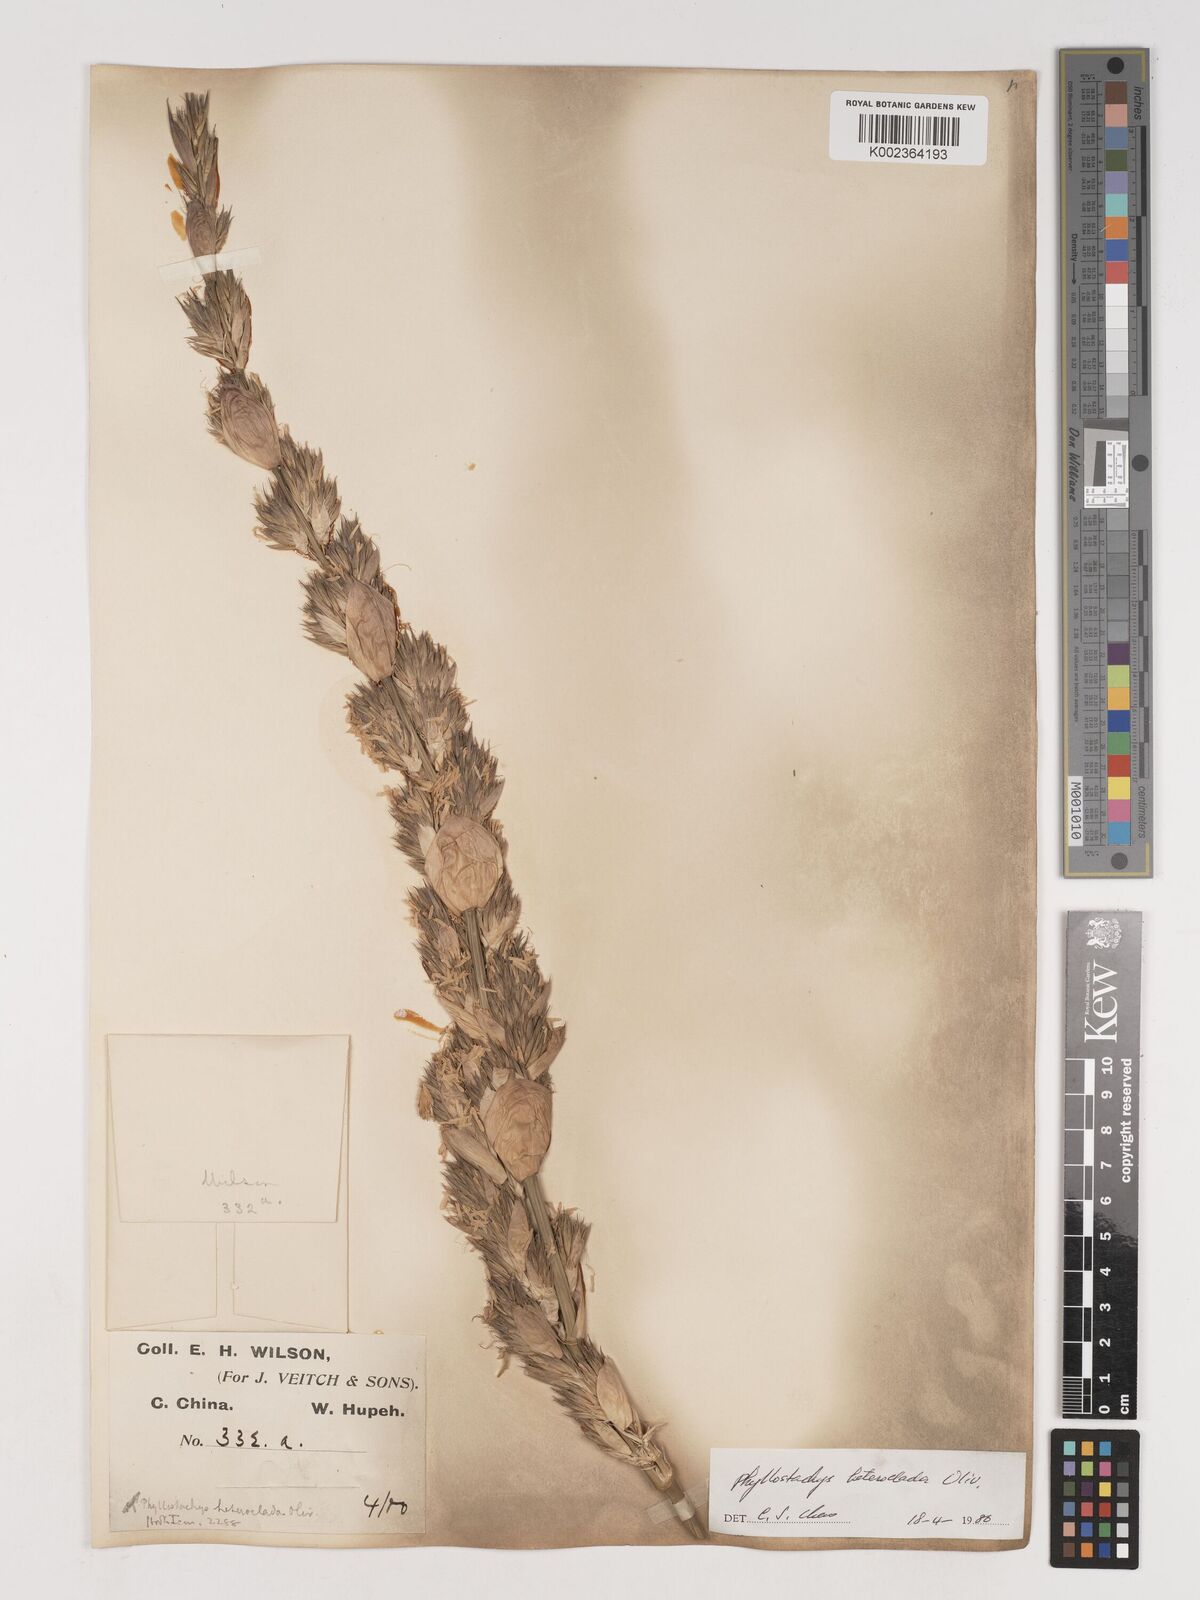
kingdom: Plantae
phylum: Tracheophyta
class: Liliopsida
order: Poales
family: Poaceae
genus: Phyllostachys
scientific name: Phyllostachys heteroclada
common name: Fishscale bamboo
